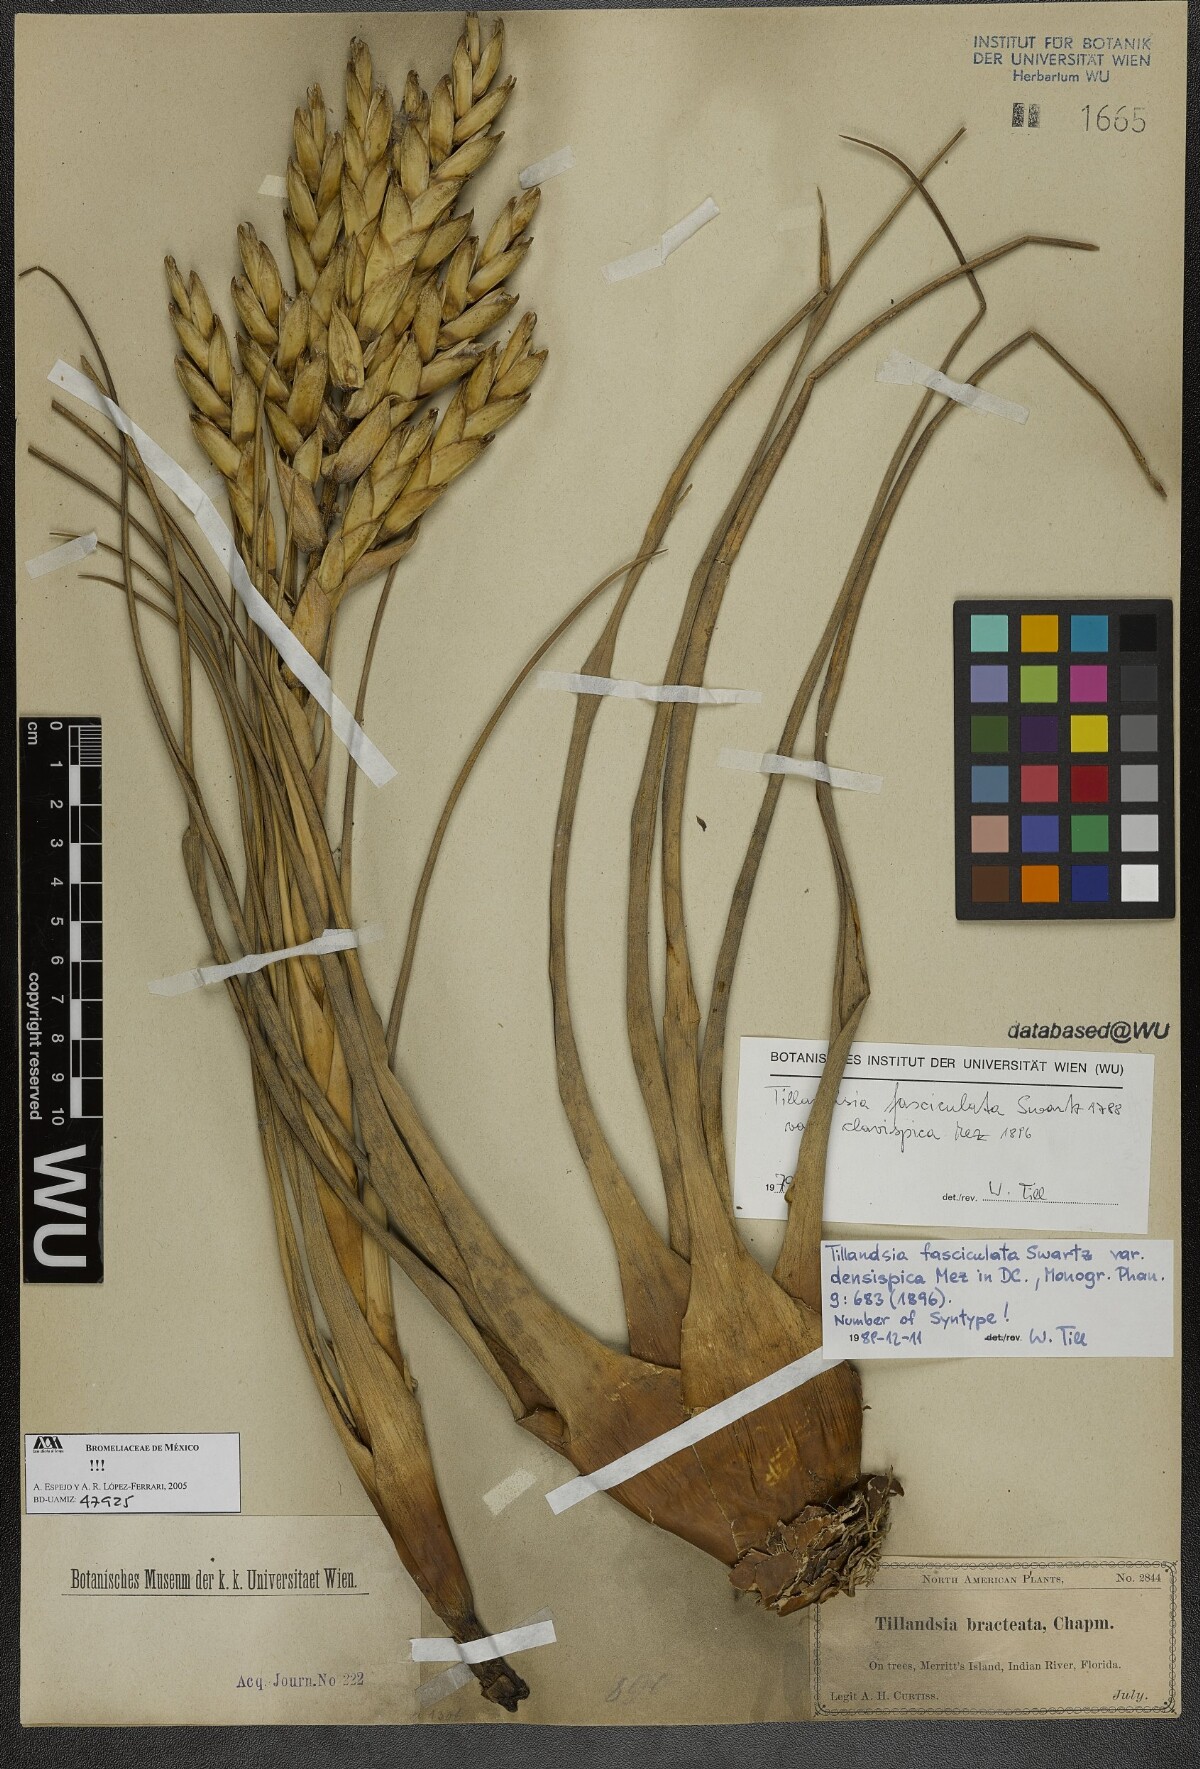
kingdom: Plantae
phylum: Tracheophyta
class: Liliopsida
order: Poales
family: Bromeliaceae
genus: Tillandsia
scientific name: Tillandsia fasciculata
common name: Giant airplant
